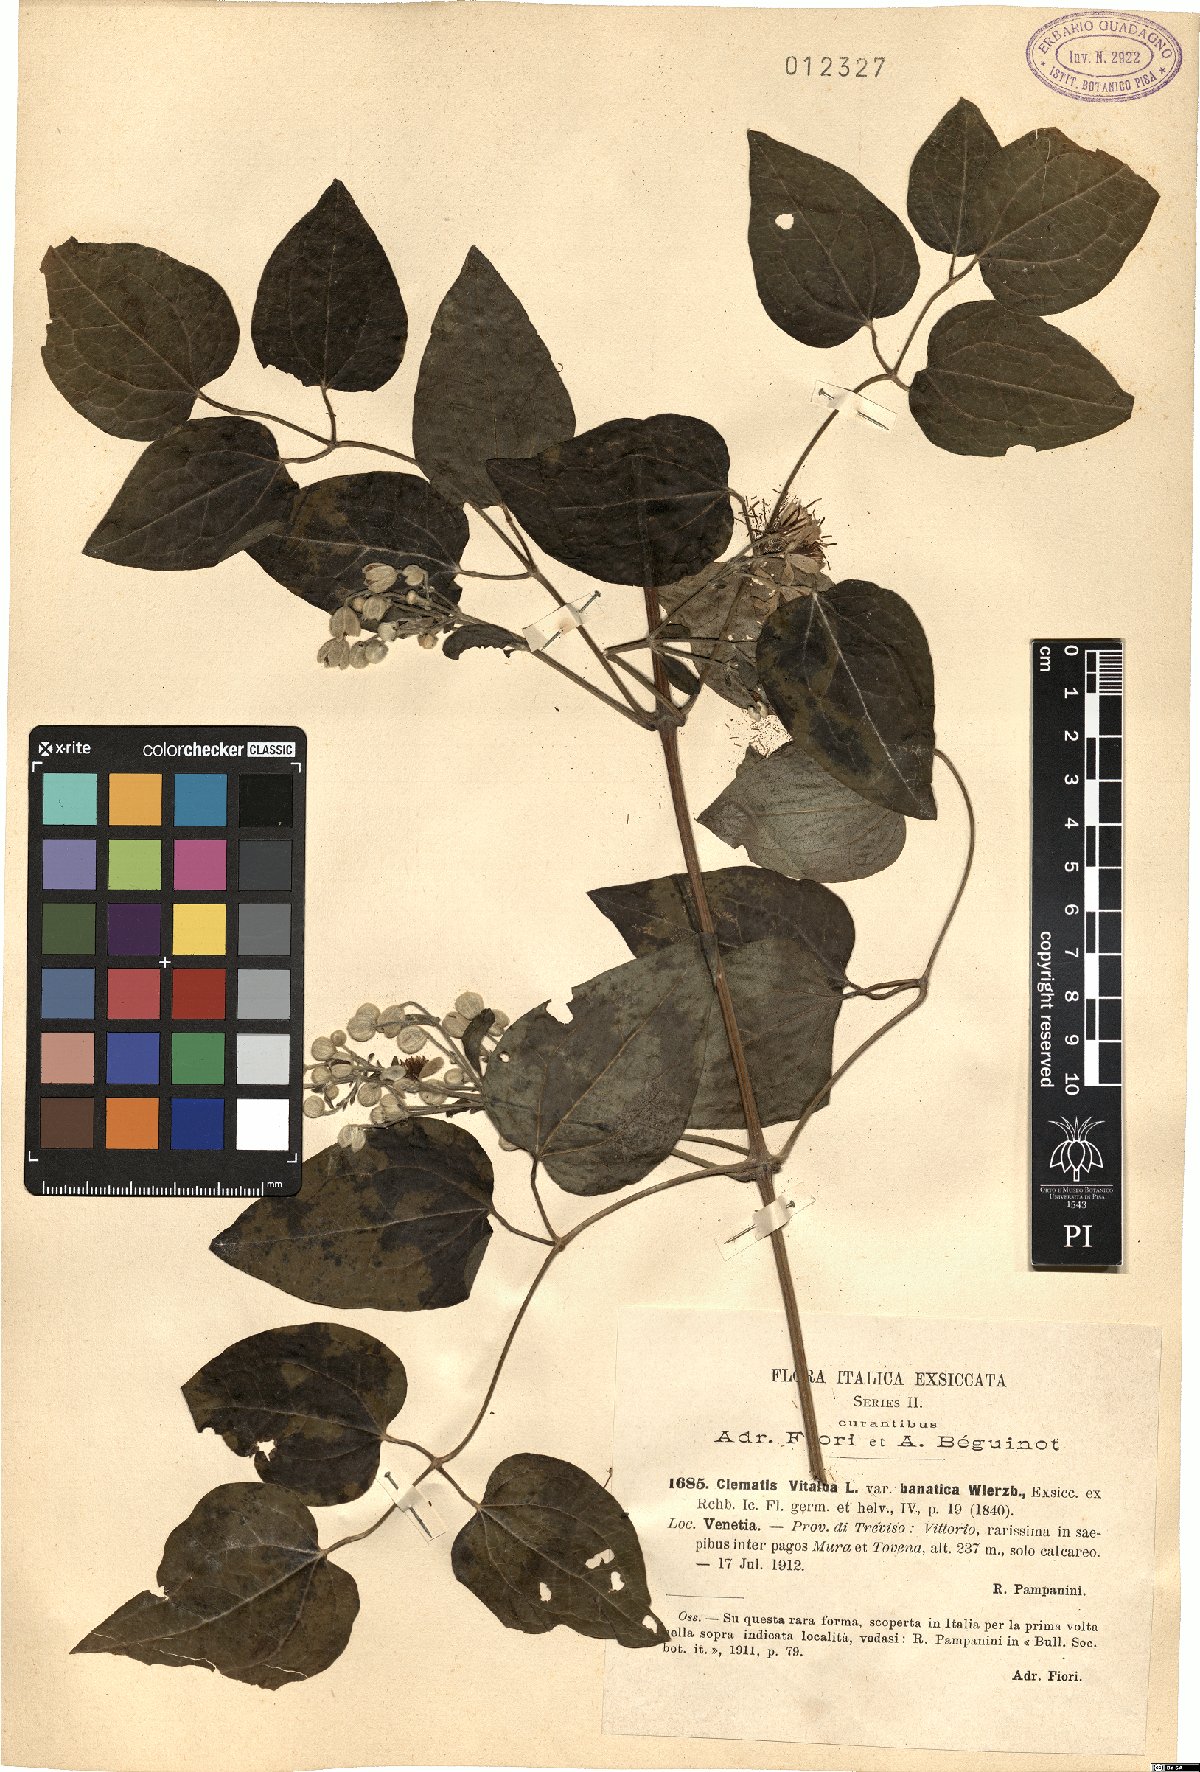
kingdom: Plantae
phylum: Tracheophyta
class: Magnoliopsida
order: Ranunculales
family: Ranunculaceae
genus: Clematis
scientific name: Clematis vitalba
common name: Evergreen clematis
